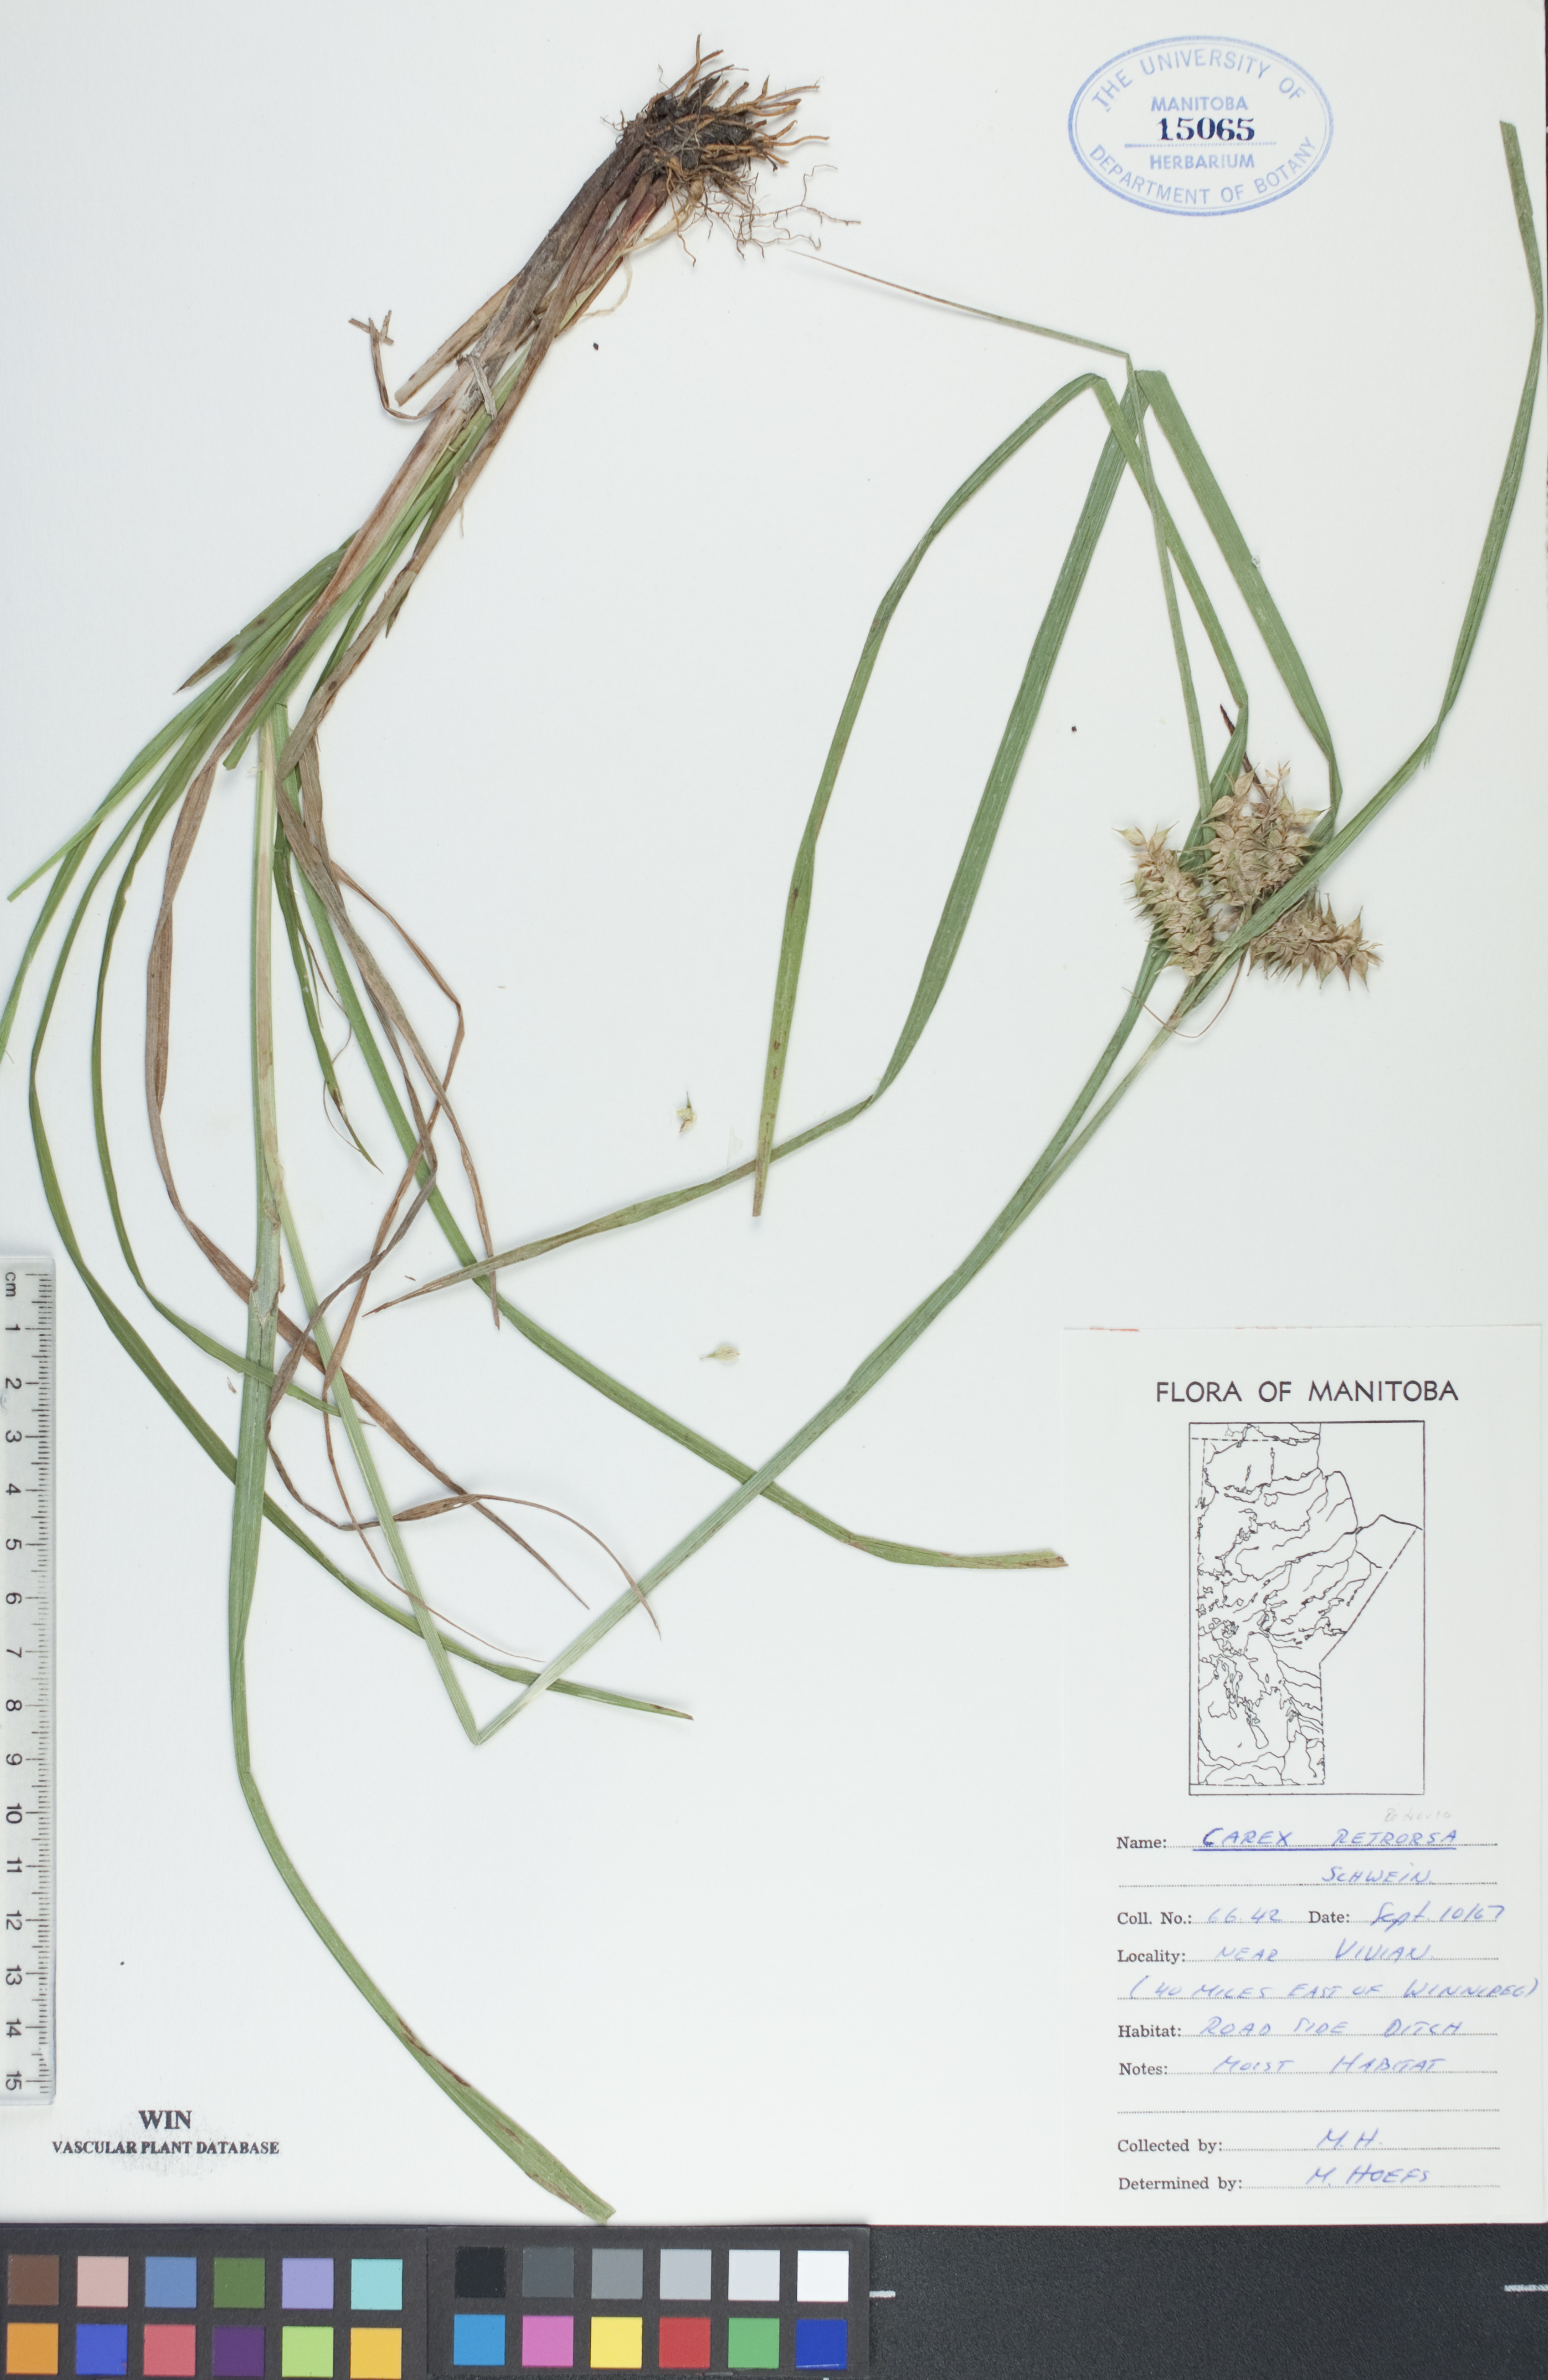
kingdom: Plantae
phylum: Tracheophyta
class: Liliopsida
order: Poales
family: Cyperaceae
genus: Carex
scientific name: Carex retrorsa
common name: Knot-sheath sedge
